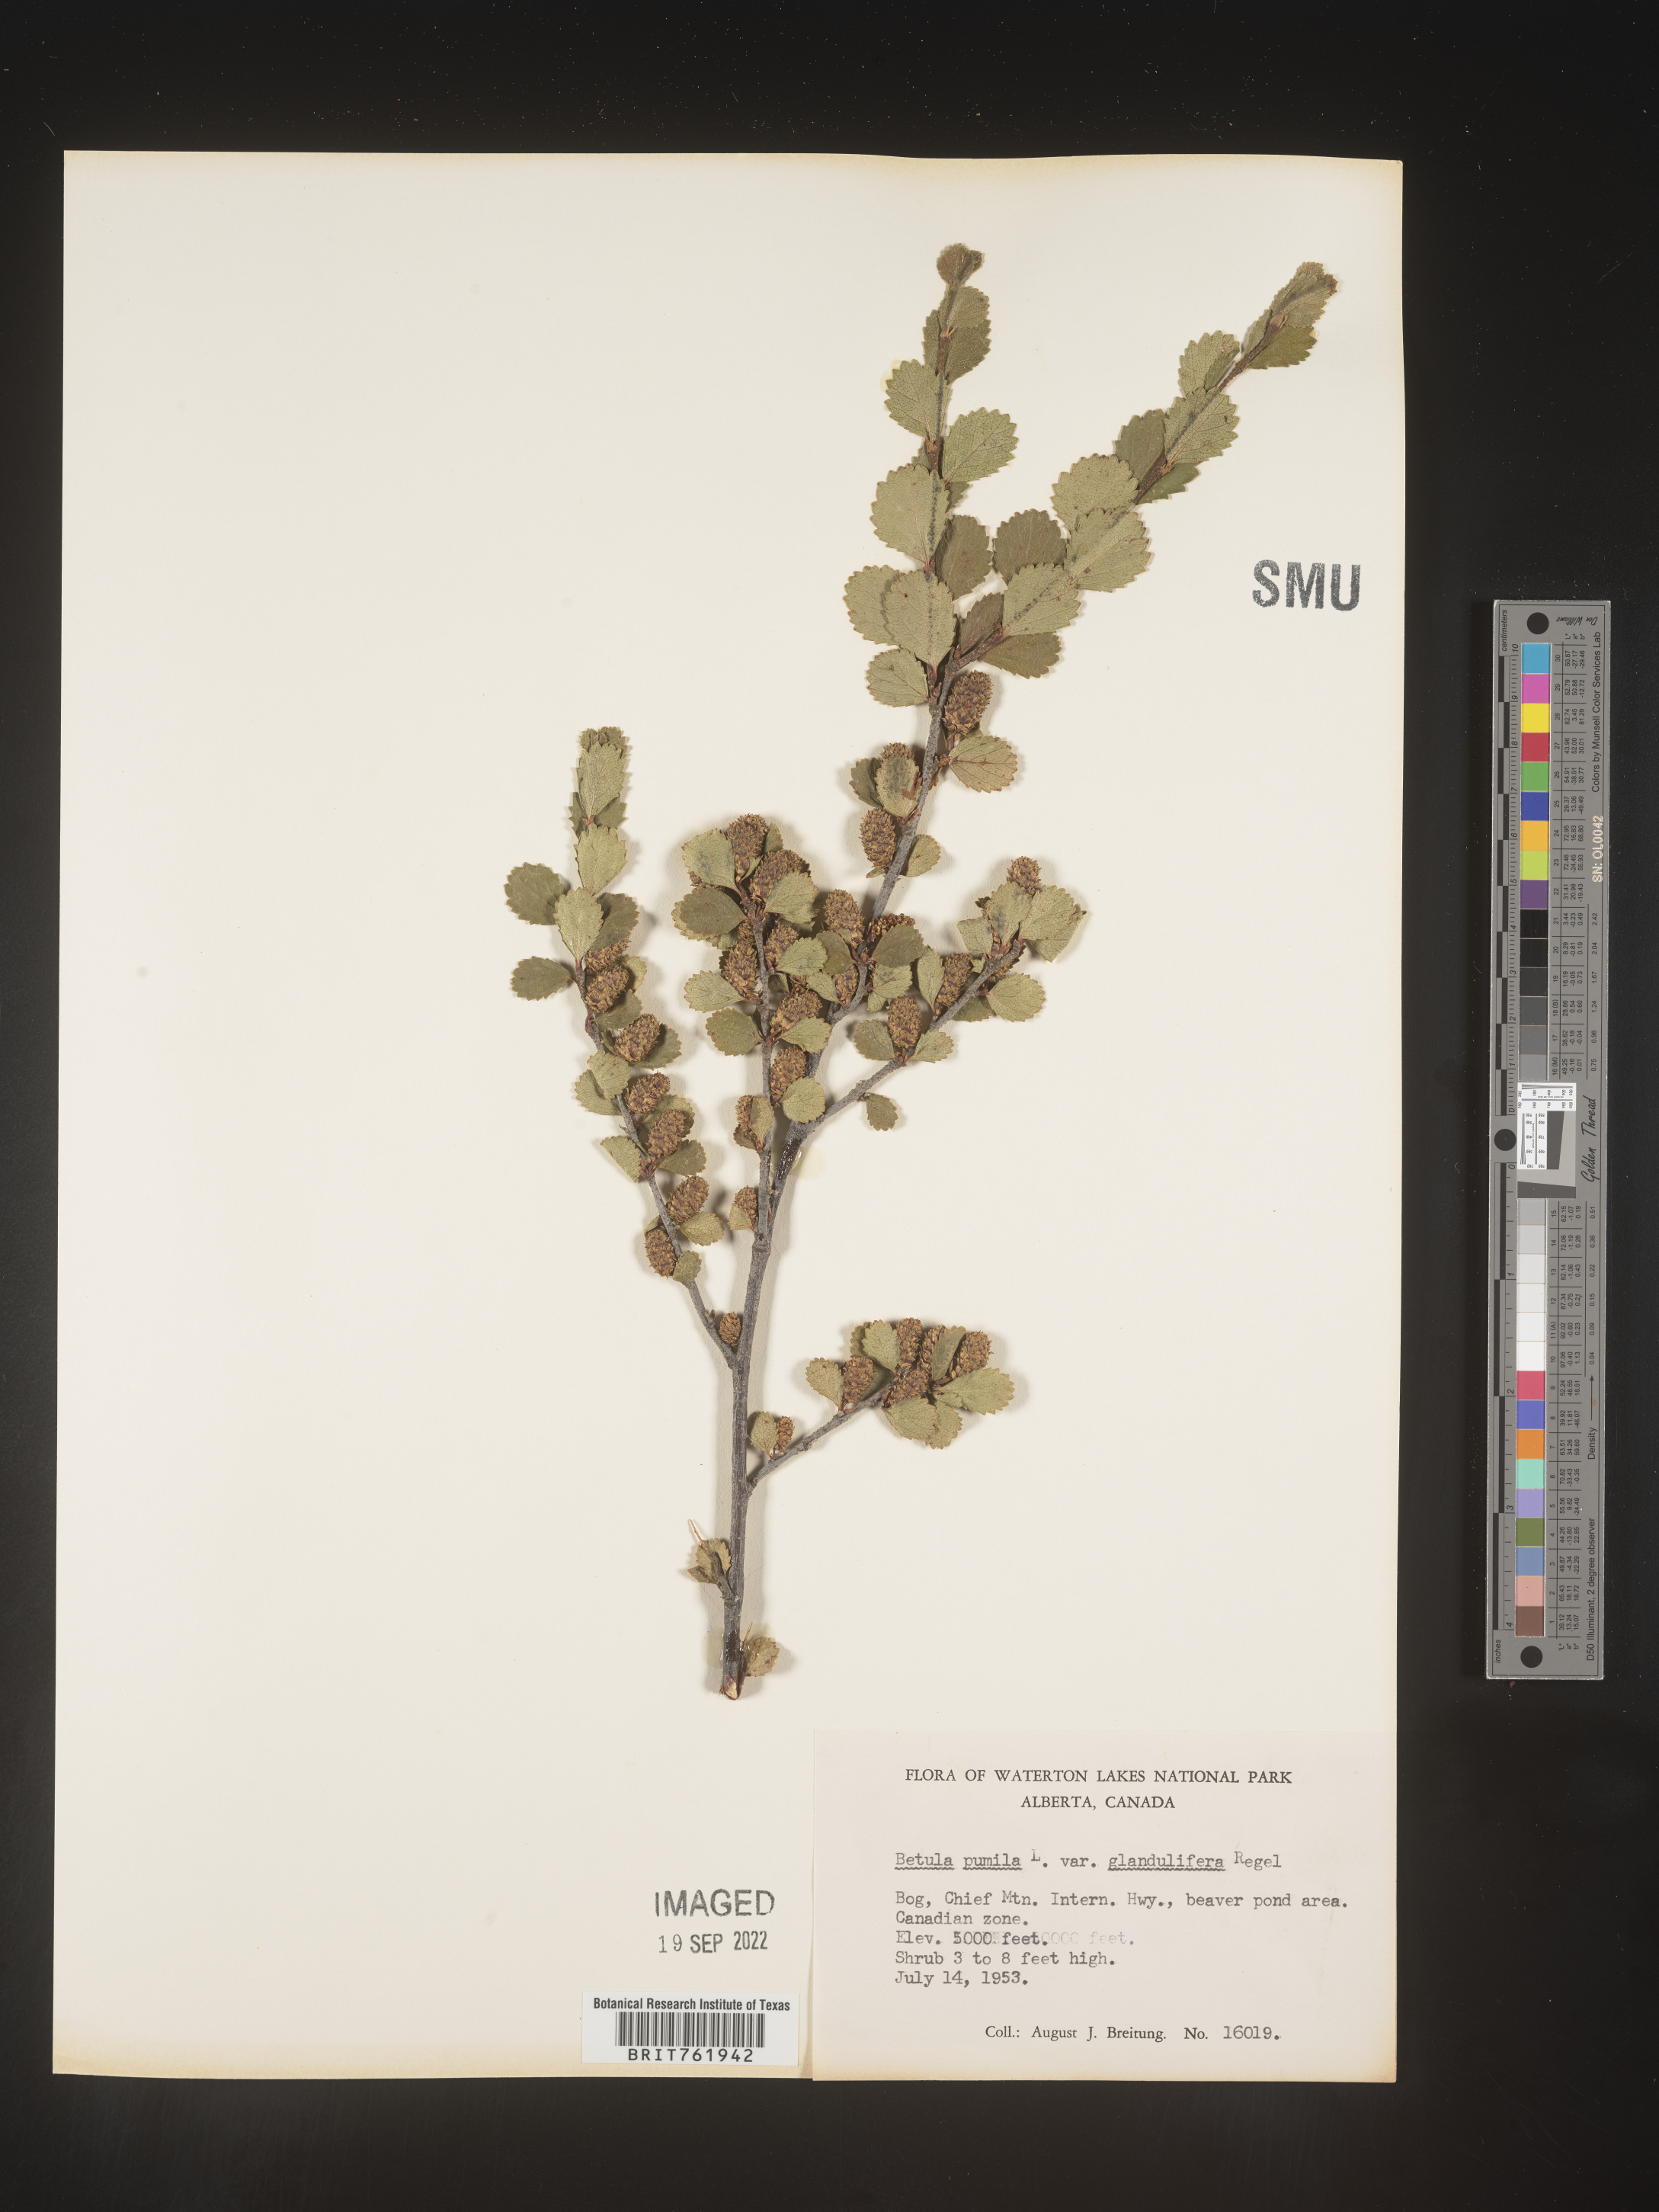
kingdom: Plantae
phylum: Tracheophyta
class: Magnoliopsida
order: Fagales
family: Betulaceae
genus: Betula
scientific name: Betula pumila
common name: Bog birch
